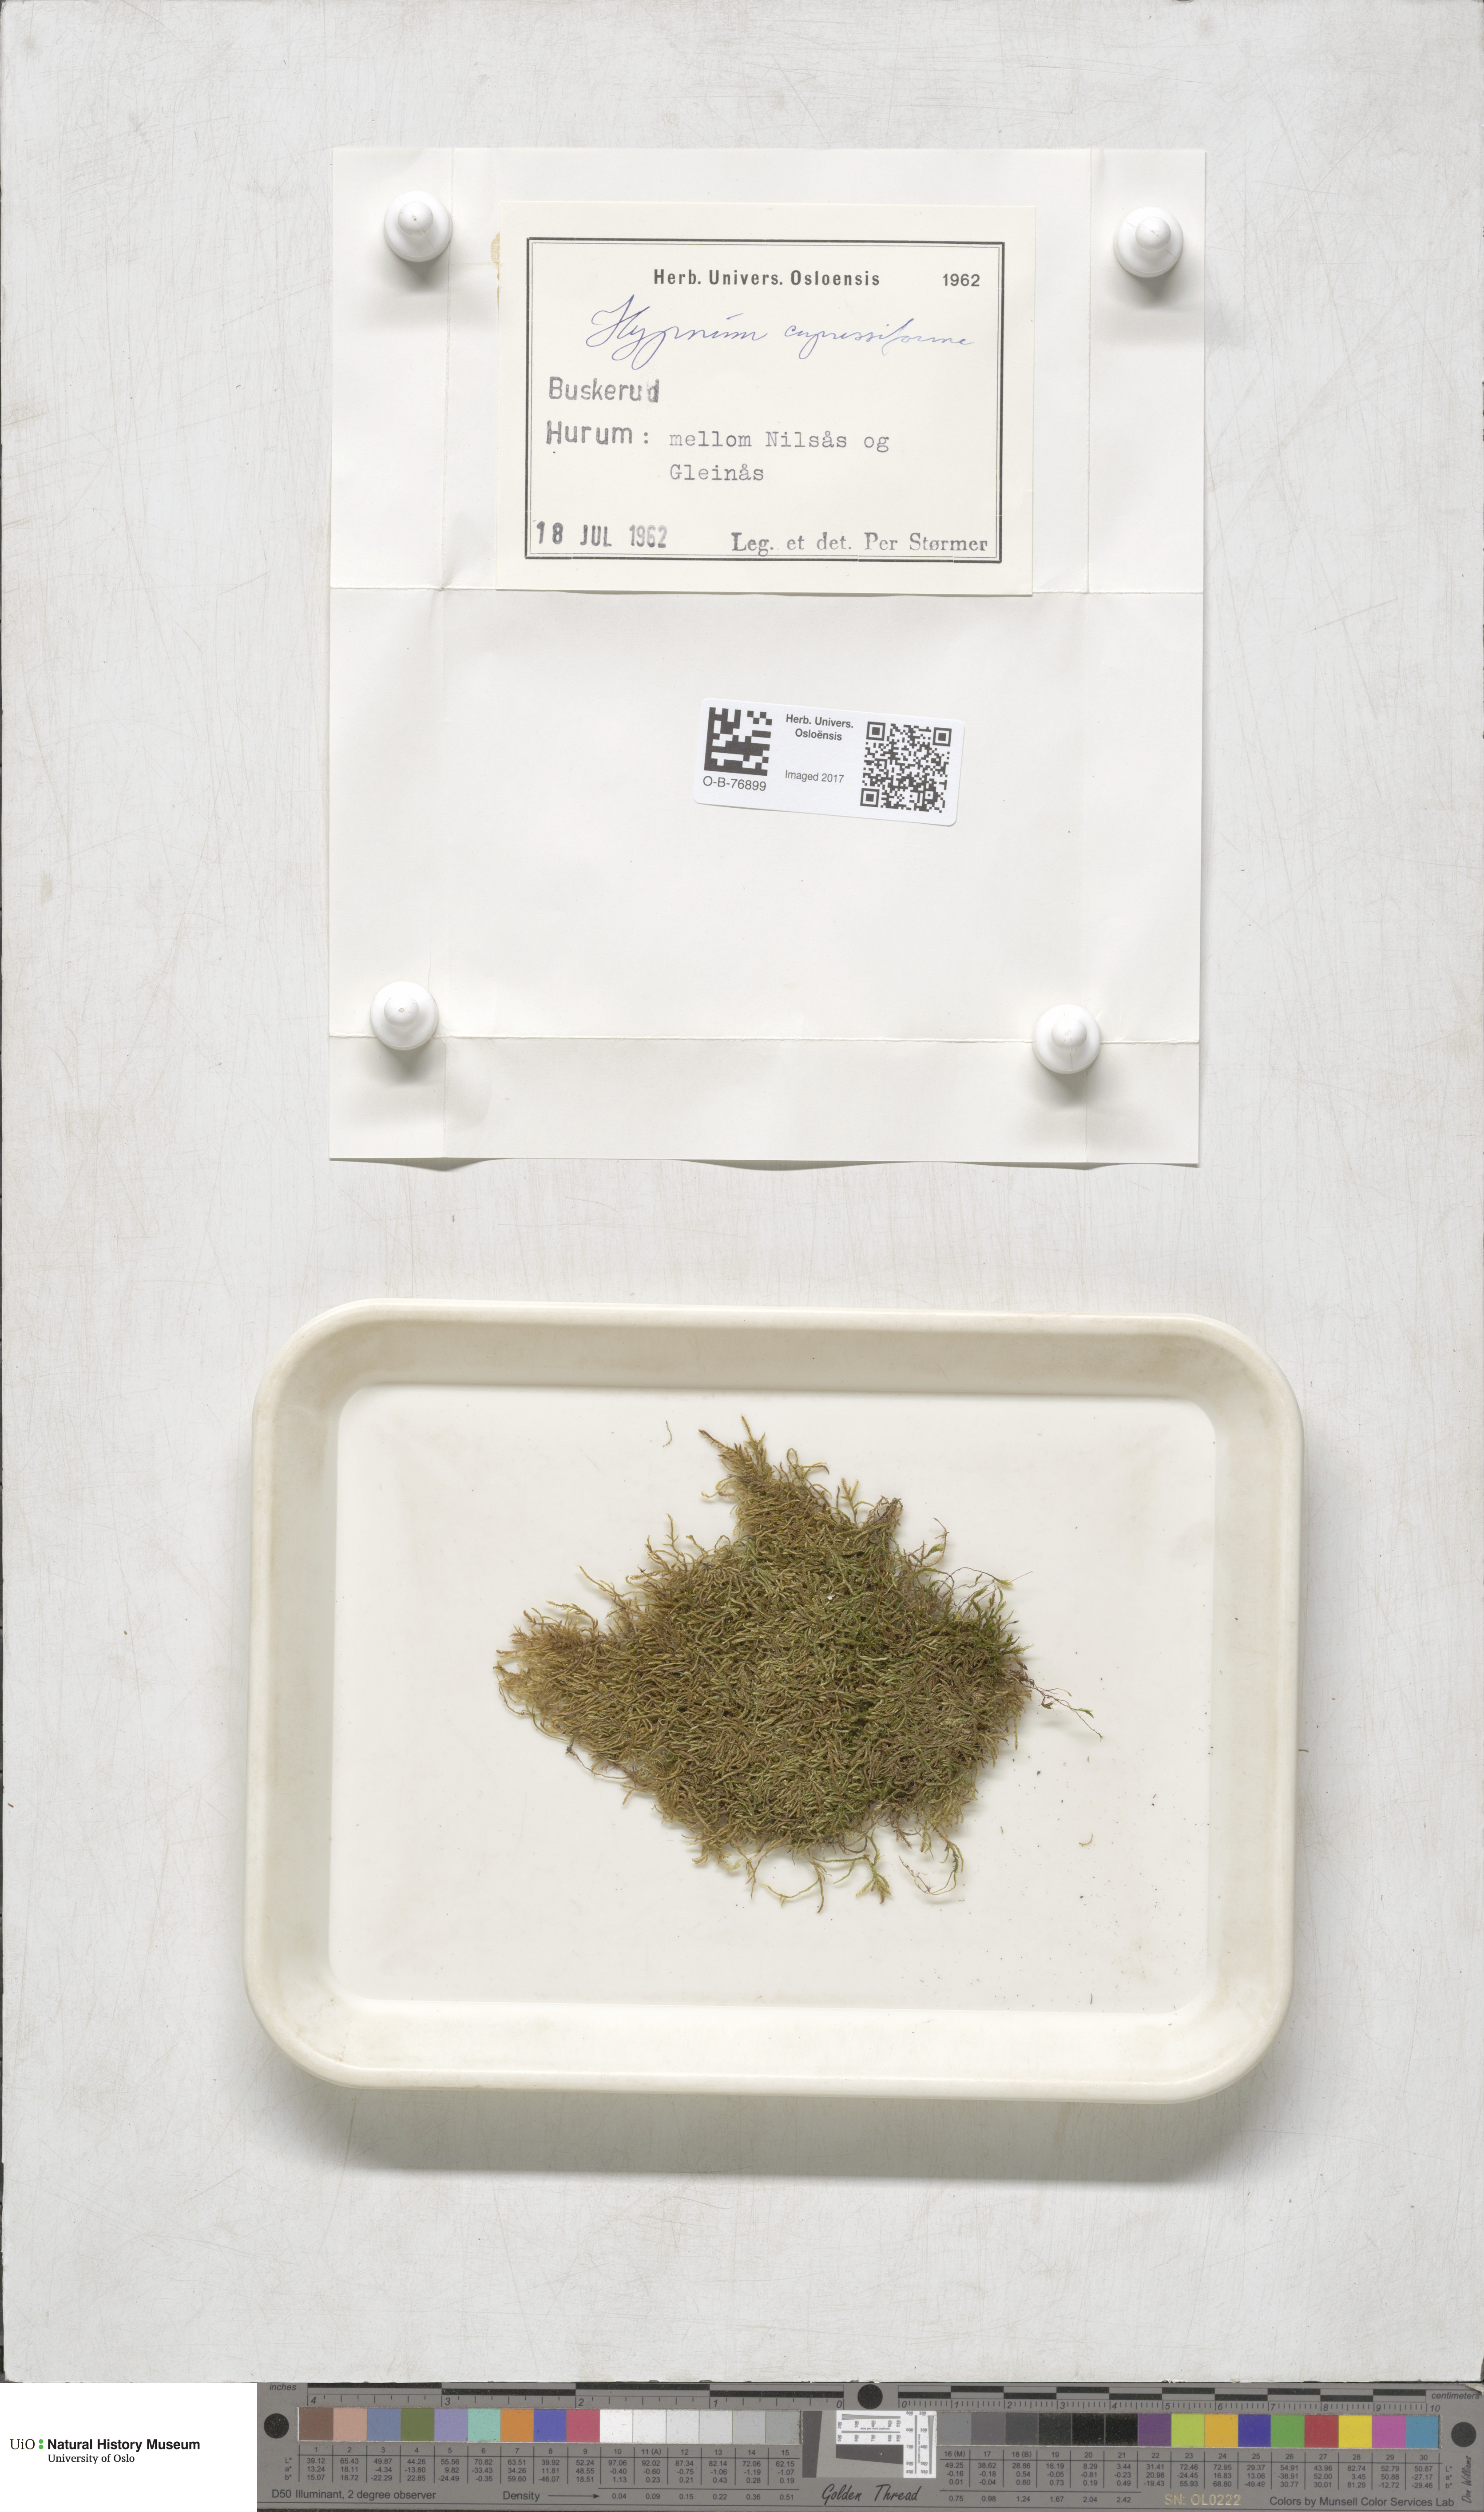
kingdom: Plantae
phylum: Bryophyta
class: Bryopsida
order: Hypnales
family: Hypnaceae
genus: Hypnum
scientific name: Hypnum cupressiforme
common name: Cypress-leaved plait-moss
